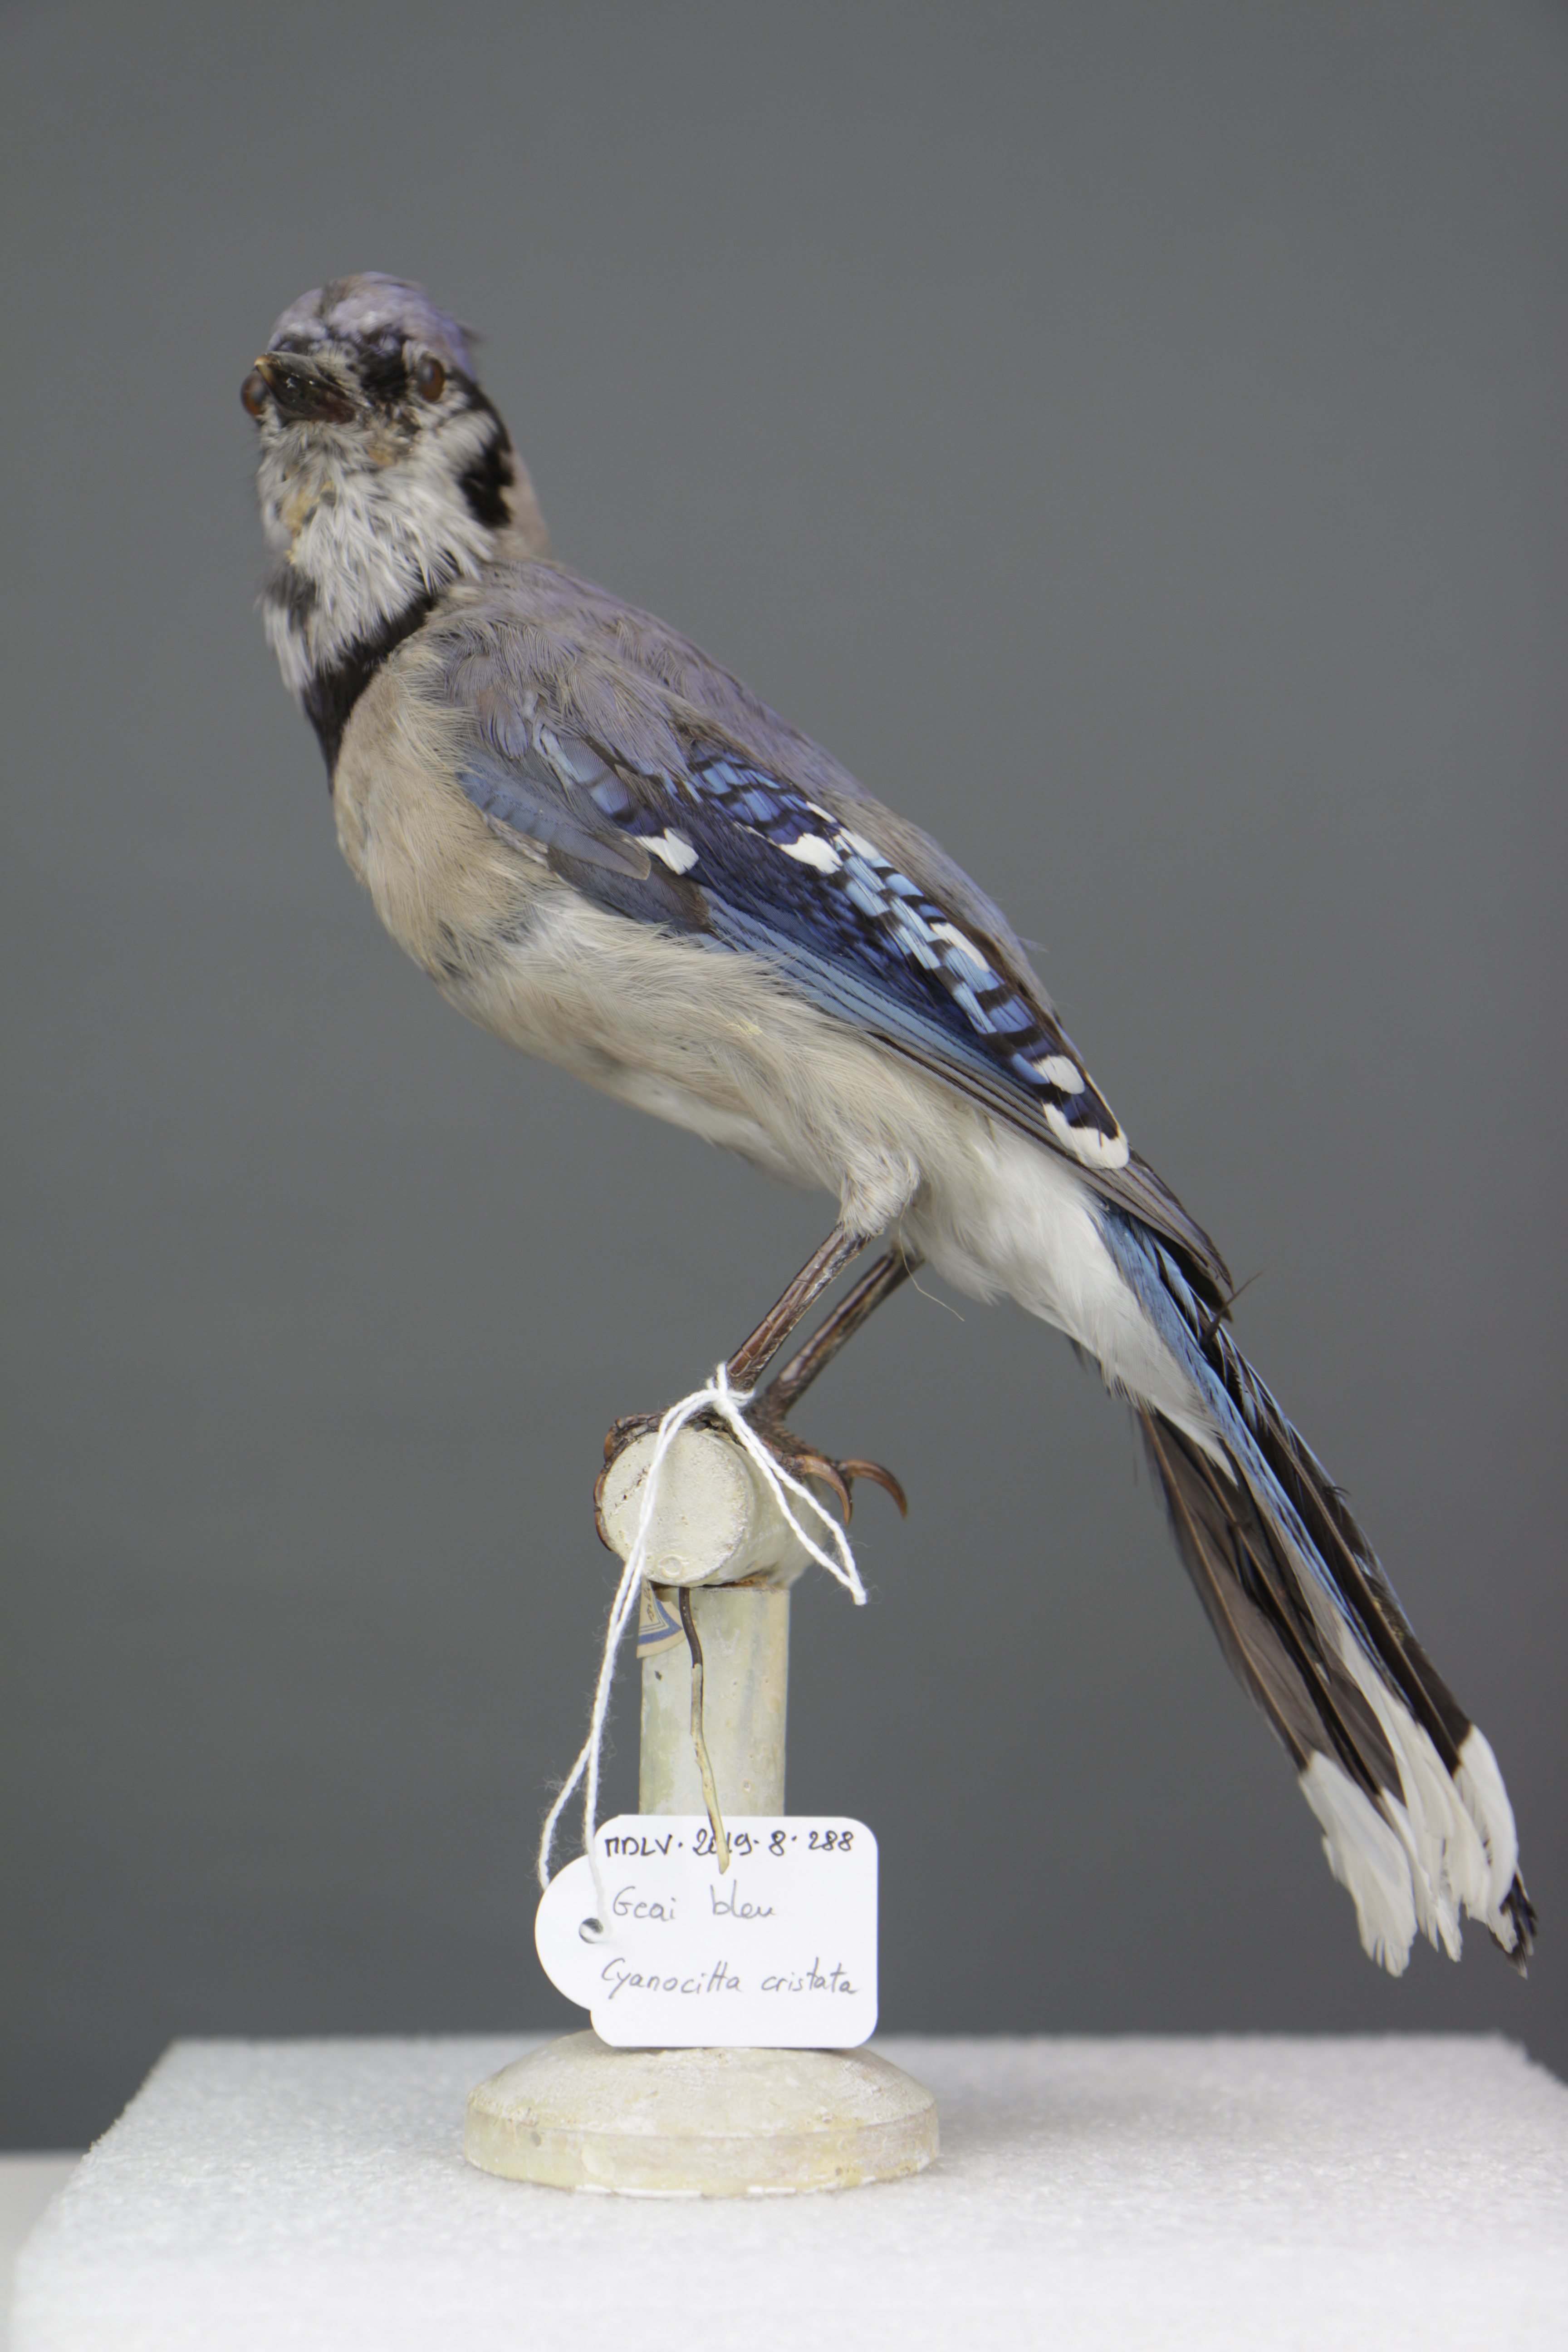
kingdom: Animalia
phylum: Chordata
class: Aves
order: Passeriformes
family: Corvidae
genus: Cyanocitta
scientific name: Cyanocitta cristata
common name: Blue jay
